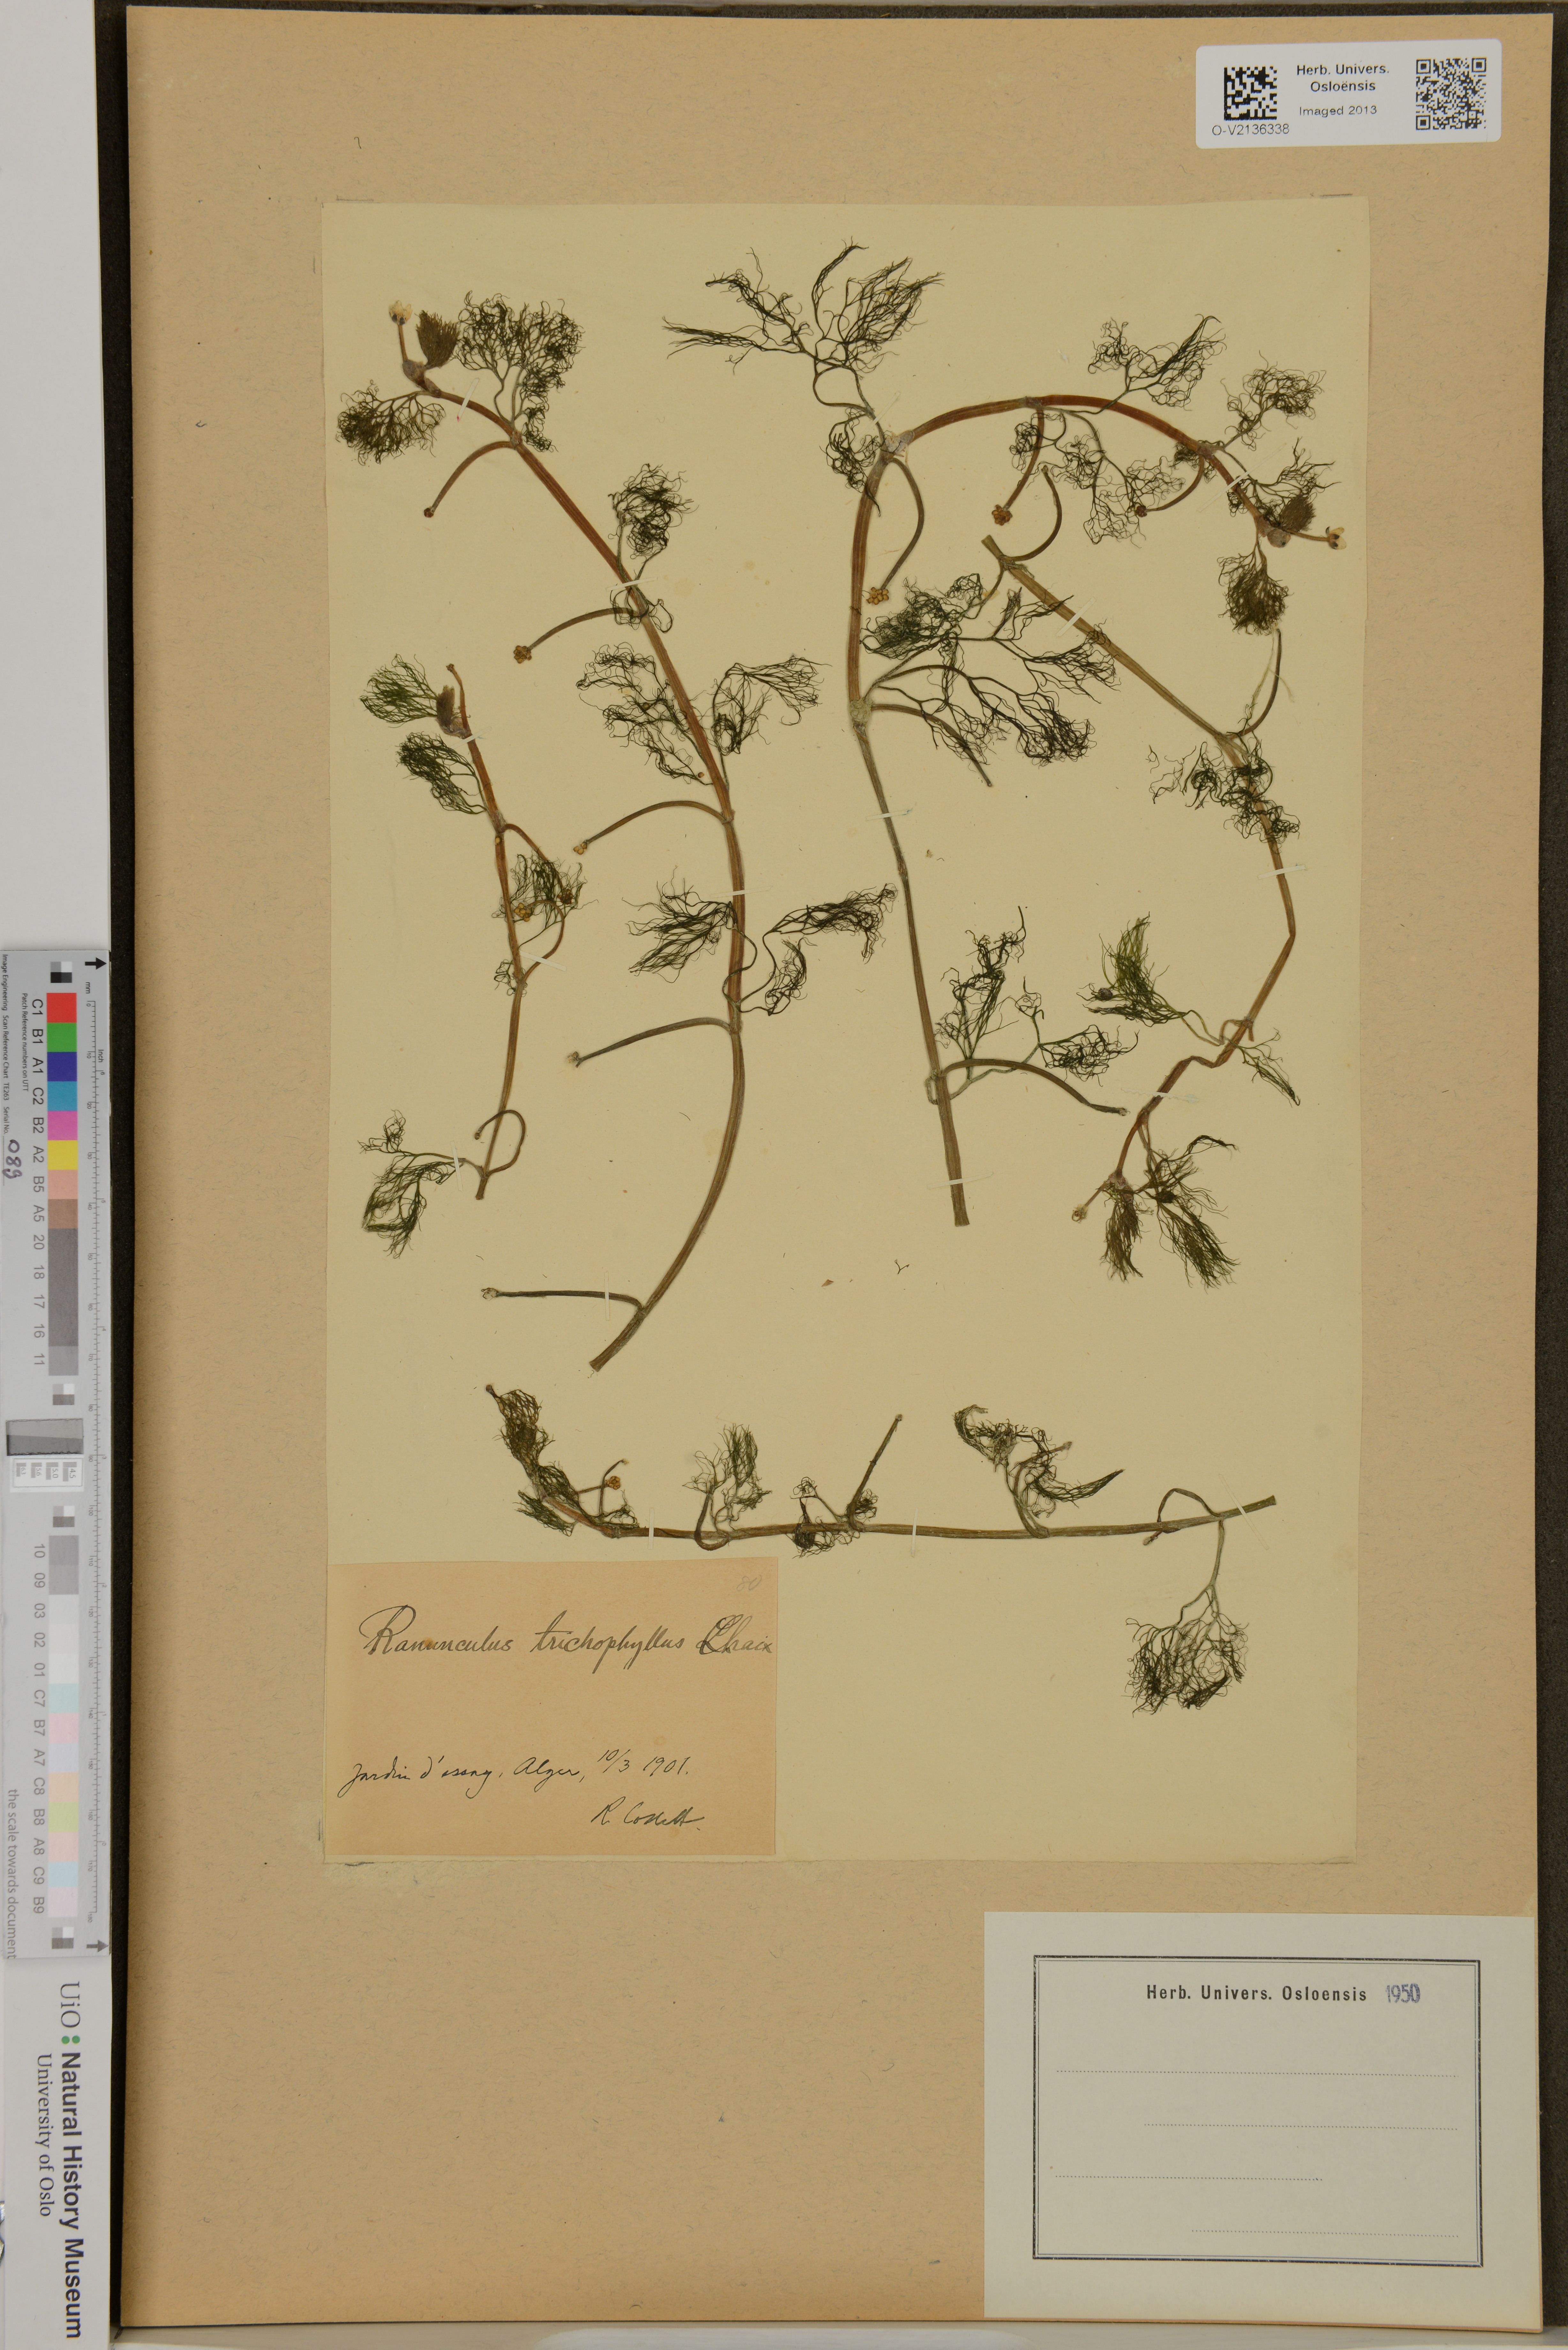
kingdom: Plantae
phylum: Tracheophyta
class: Magnoliopsida
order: Ranunculales
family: Ranunculaceae
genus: Ranunculus
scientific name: Ranunculus trichophyllus
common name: Thread-leaved water-crowfoot
